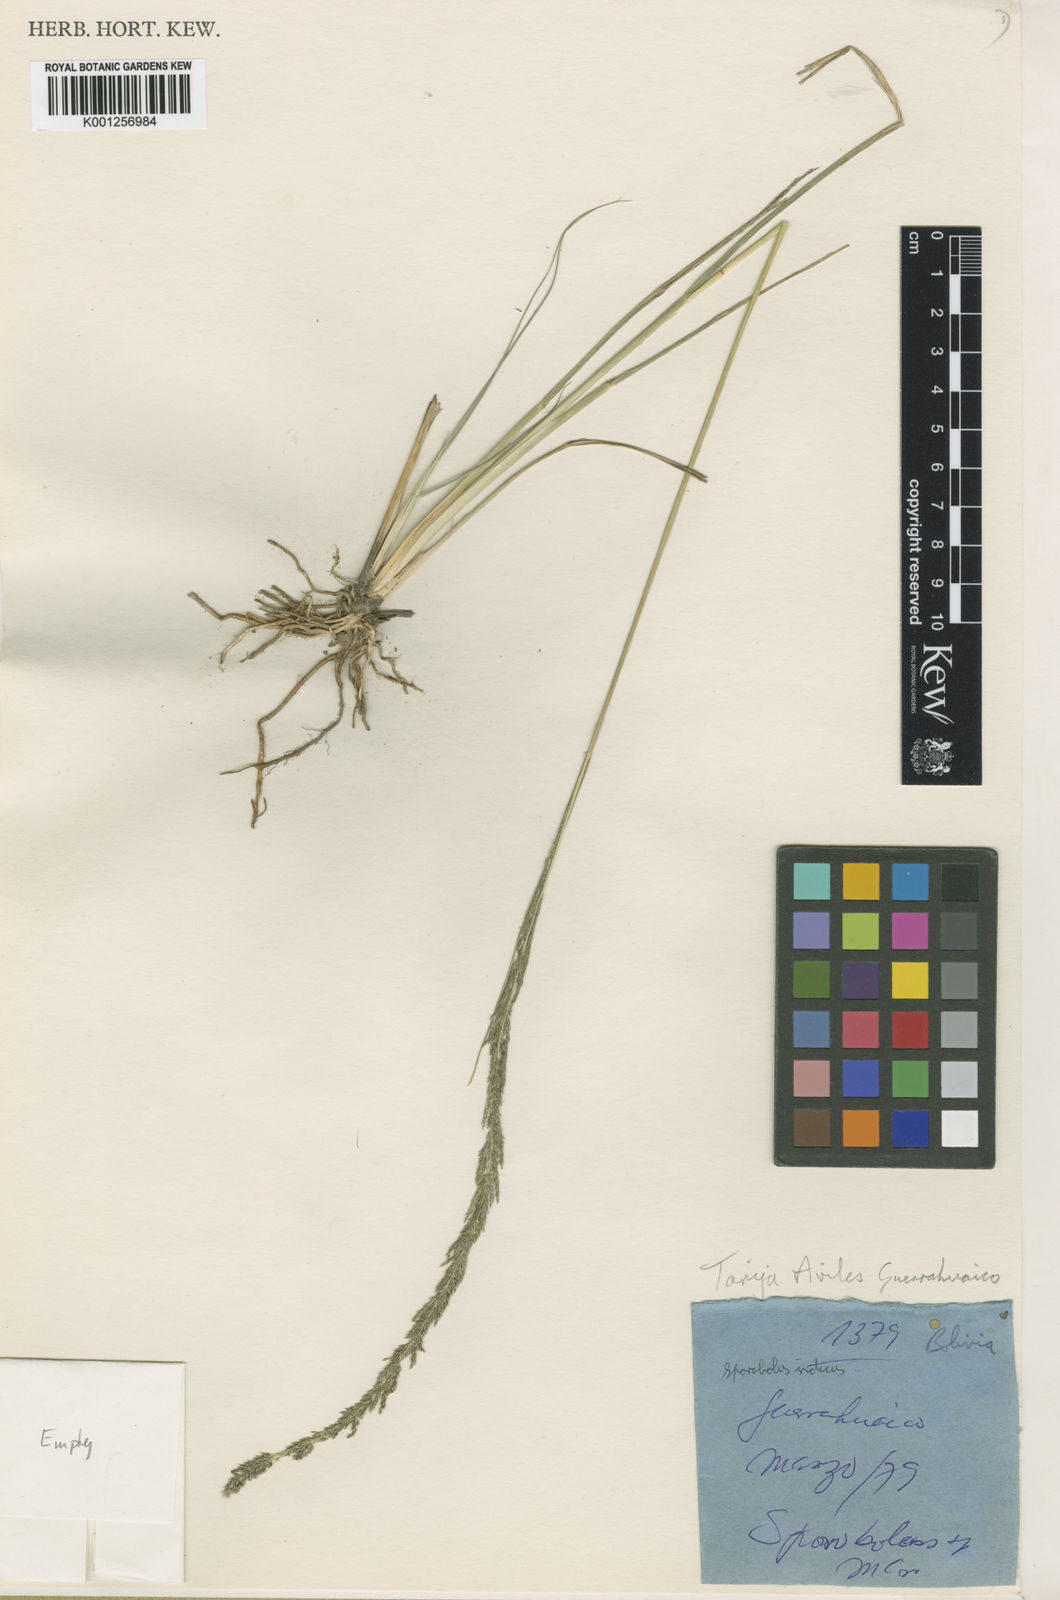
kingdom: Plantae
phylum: Tracheophyta
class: Liliopsida
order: Poales
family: Poaceae
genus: Sporobolus
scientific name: Sporobolus indicus
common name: Smut grass
